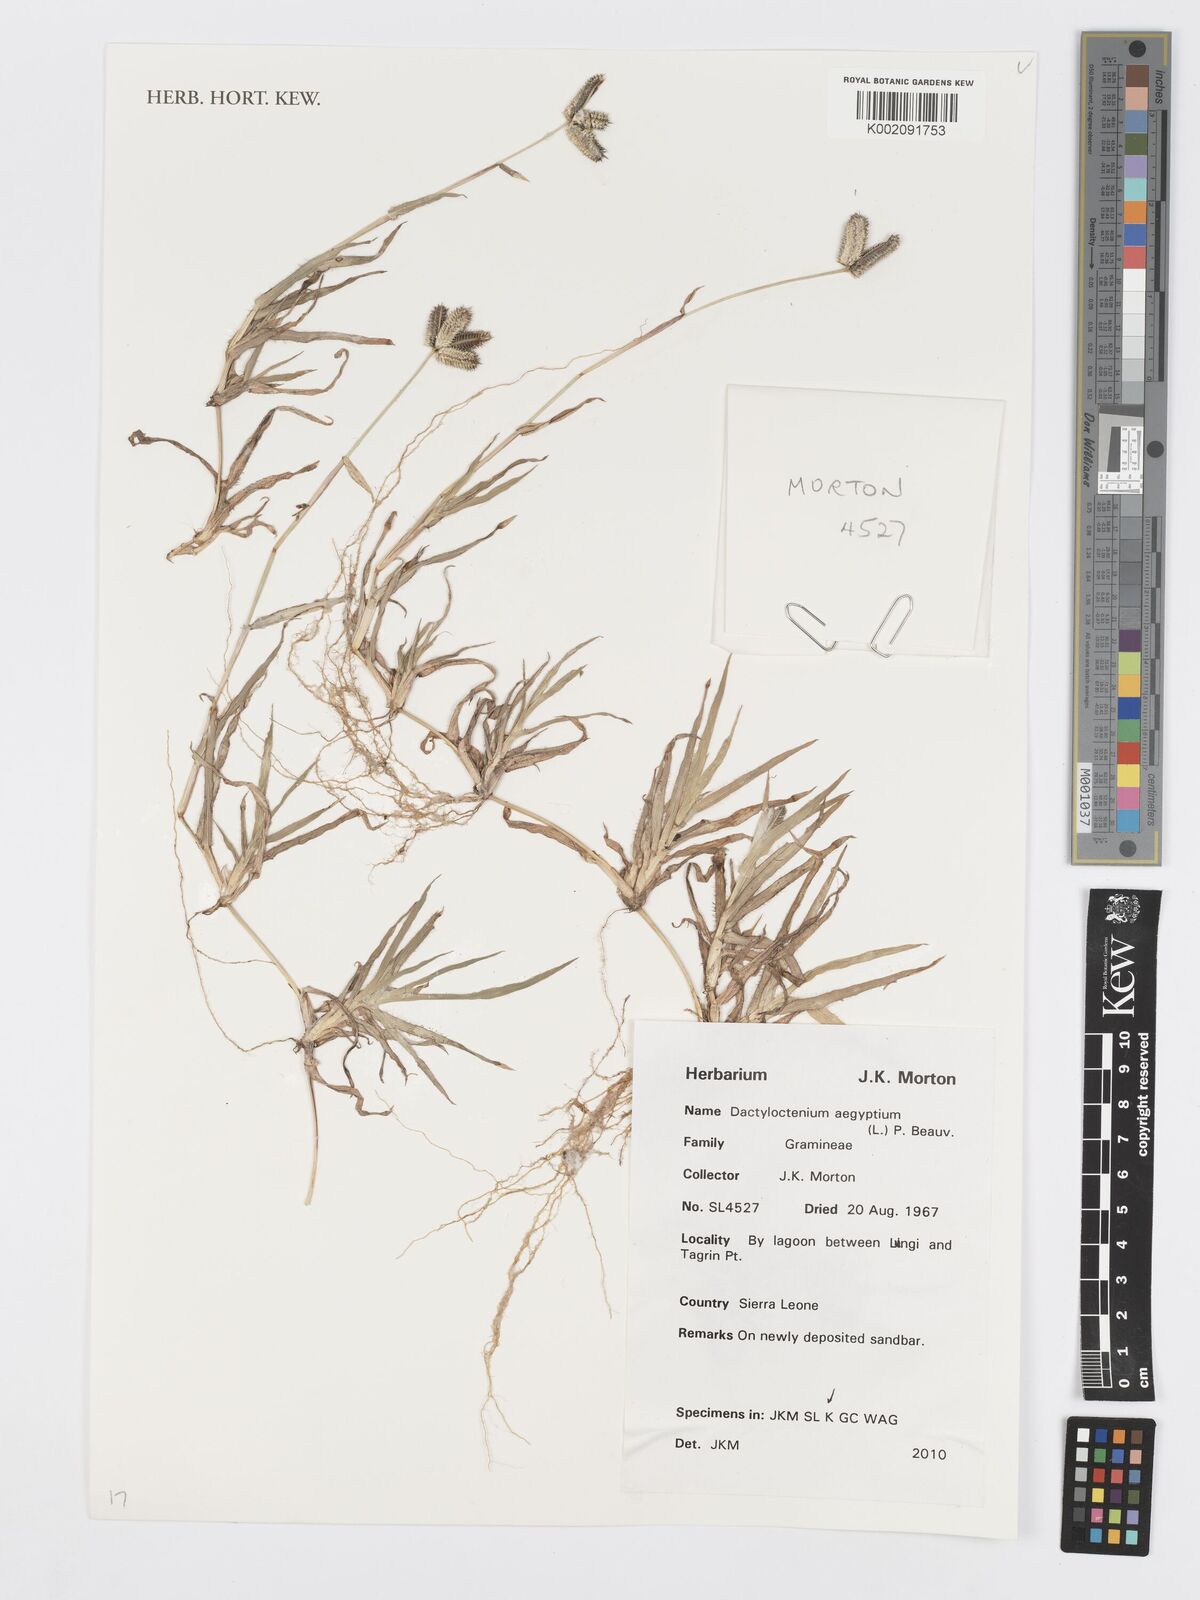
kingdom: Plantae
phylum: Tracheophyta
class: Liliopsida
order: Poales
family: Poaceae
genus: Dactyloctenium
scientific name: Dactyloctenium aegyptium
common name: Egyptian grass
